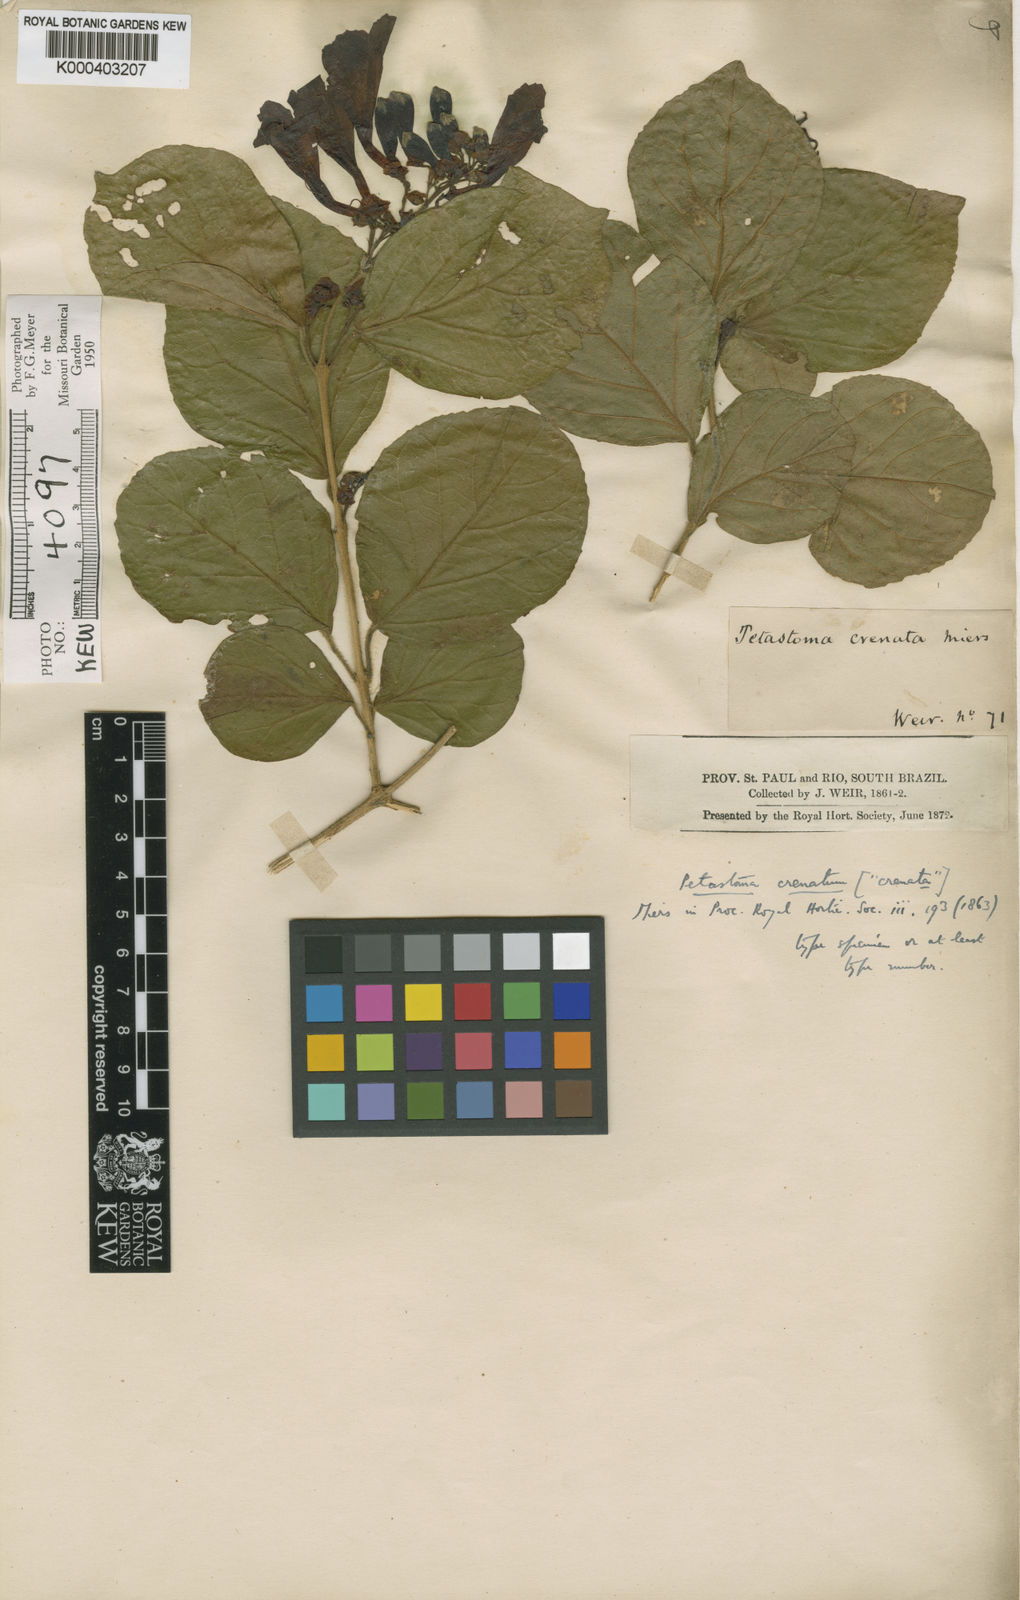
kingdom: Plantae
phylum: Tracheophyta
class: Magnoliopsida
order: Lamiales
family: Bignoniaceae
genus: Fridericia
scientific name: Fridericia samydoides
